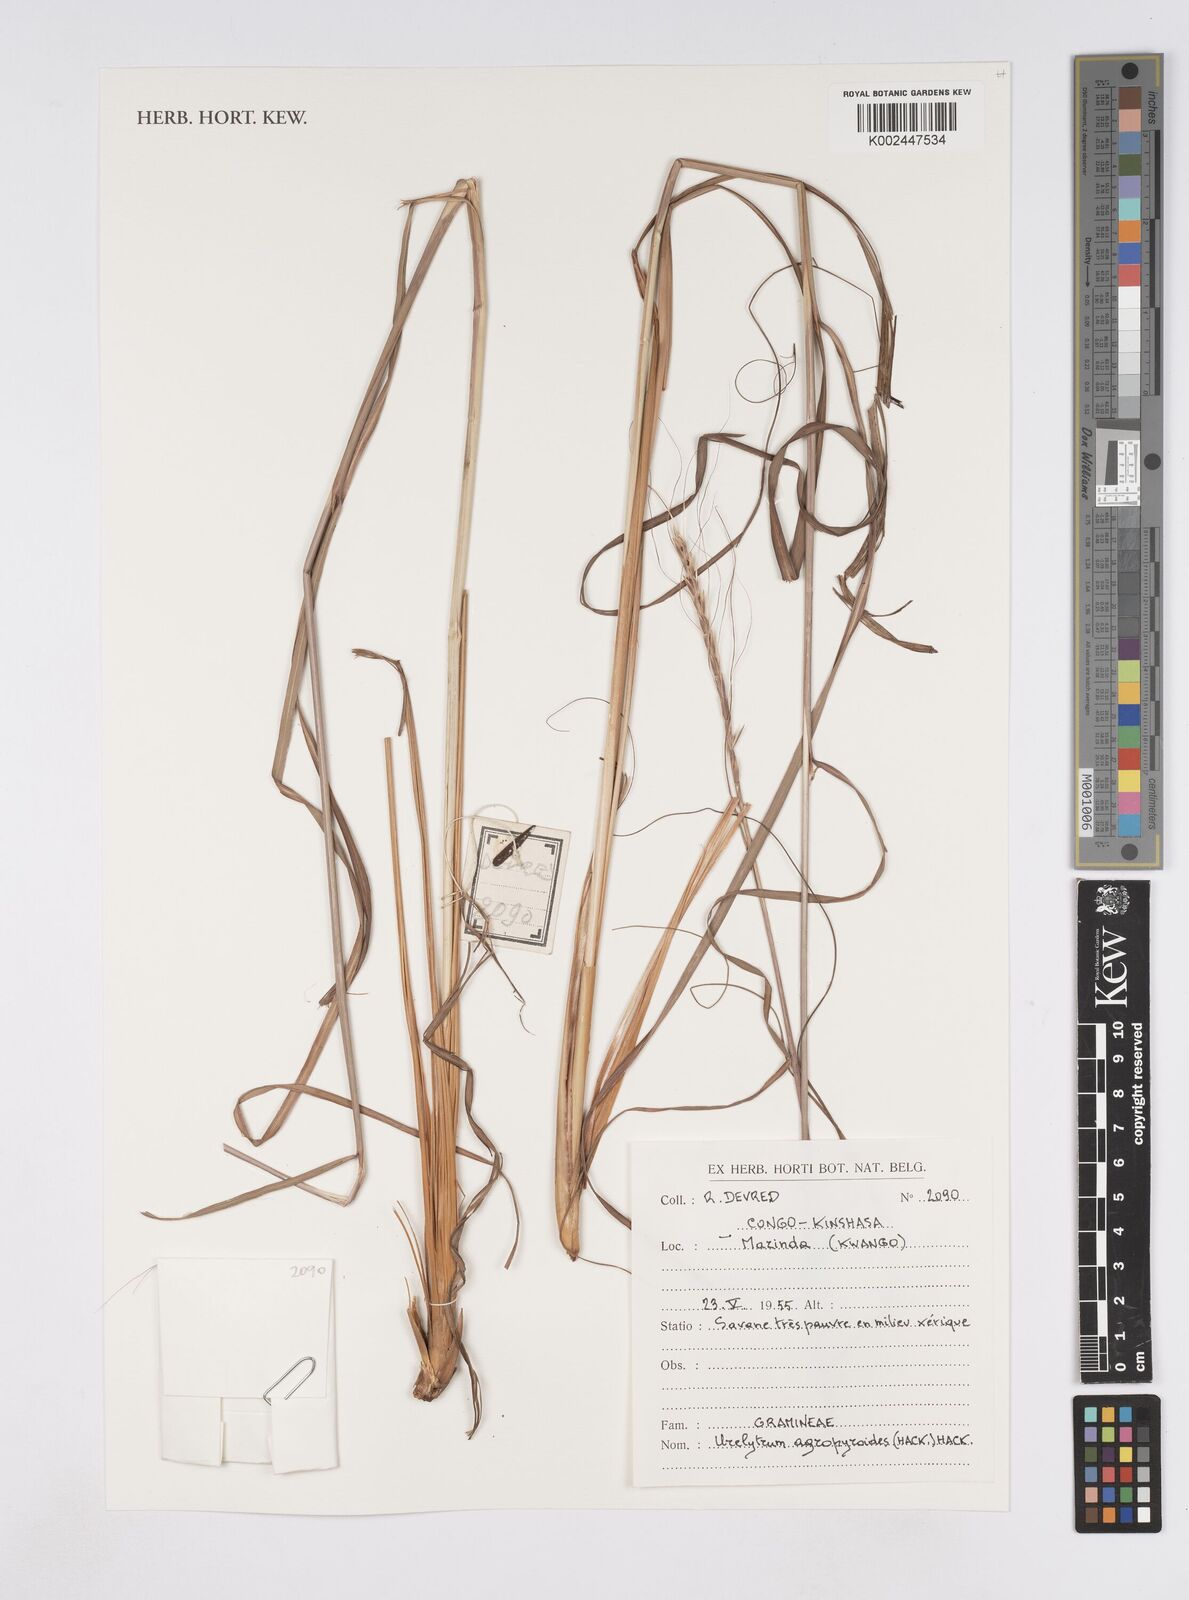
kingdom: Plantae
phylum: Tracheophyta
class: Liliopsida
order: Poales
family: Poaceae
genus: Urelytrum
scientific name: Urelytrum agropyroides
